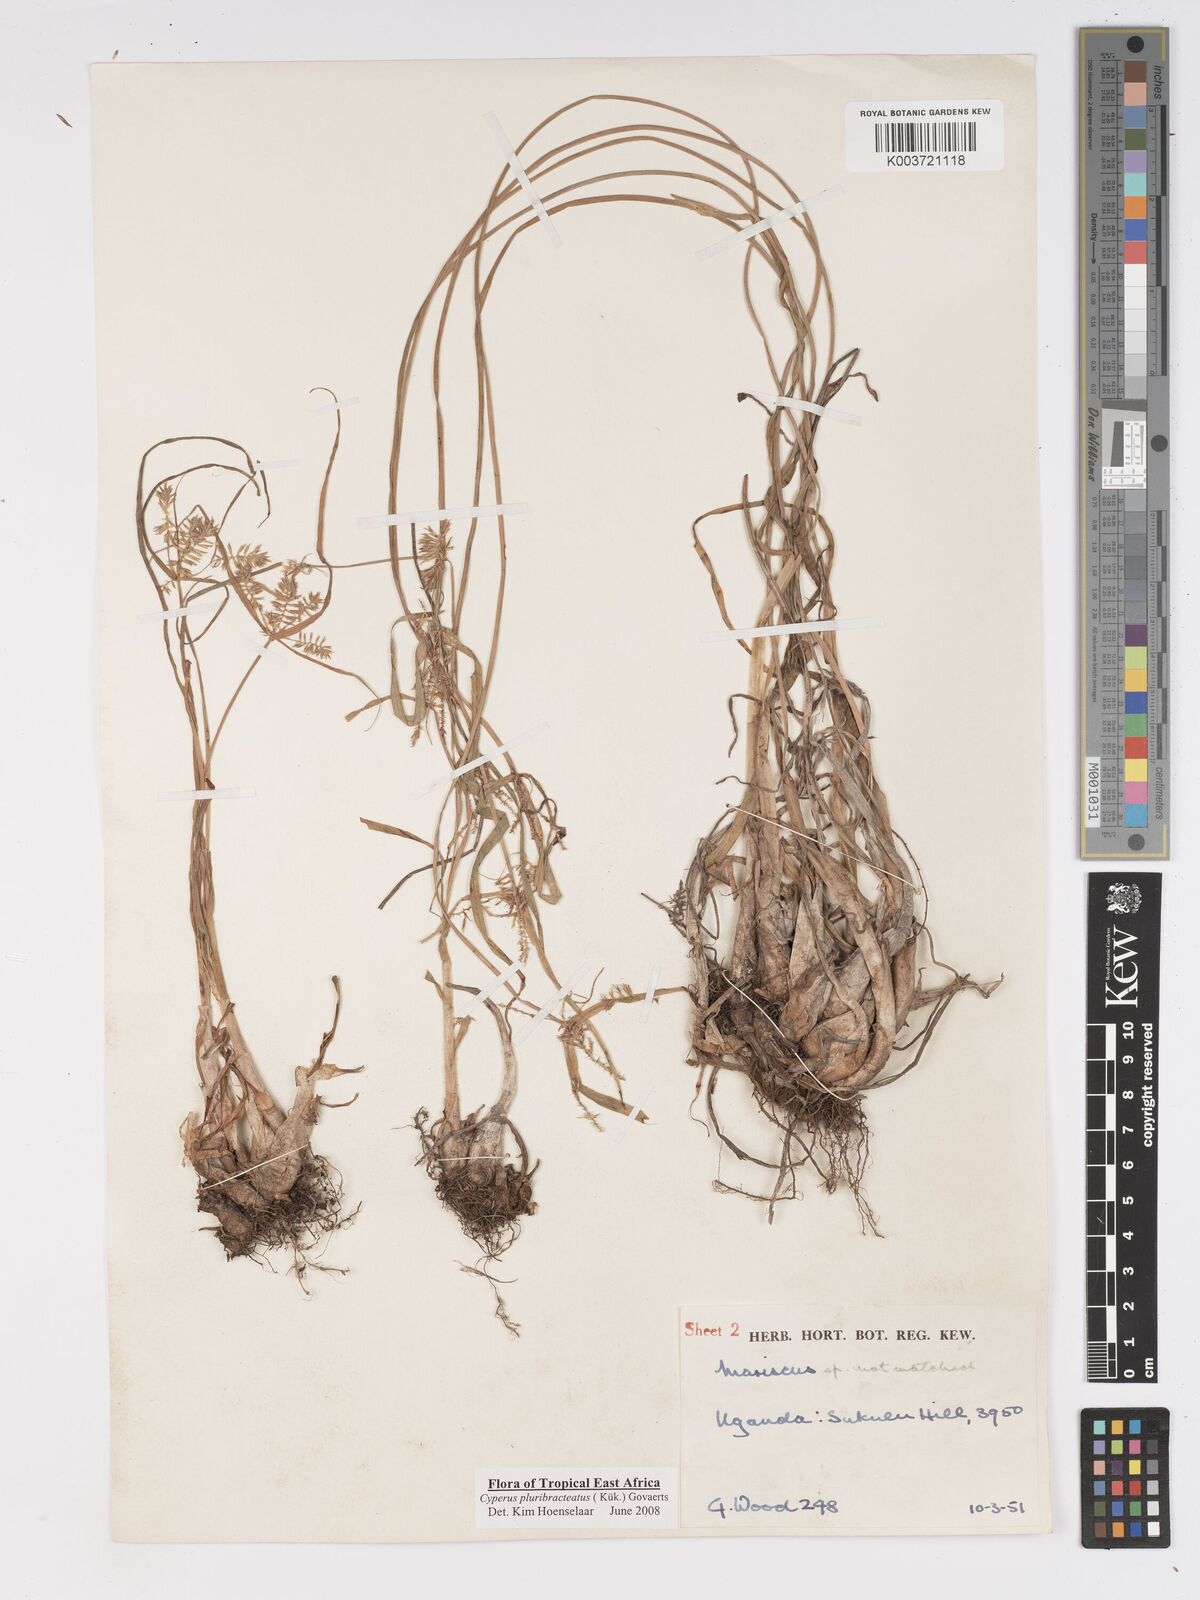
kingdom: Plantae
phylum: Tracheophyta
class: Liliopsida
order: Poales
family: Cyperaceae
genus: Cyperus
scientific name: Cyperus trigonellus
